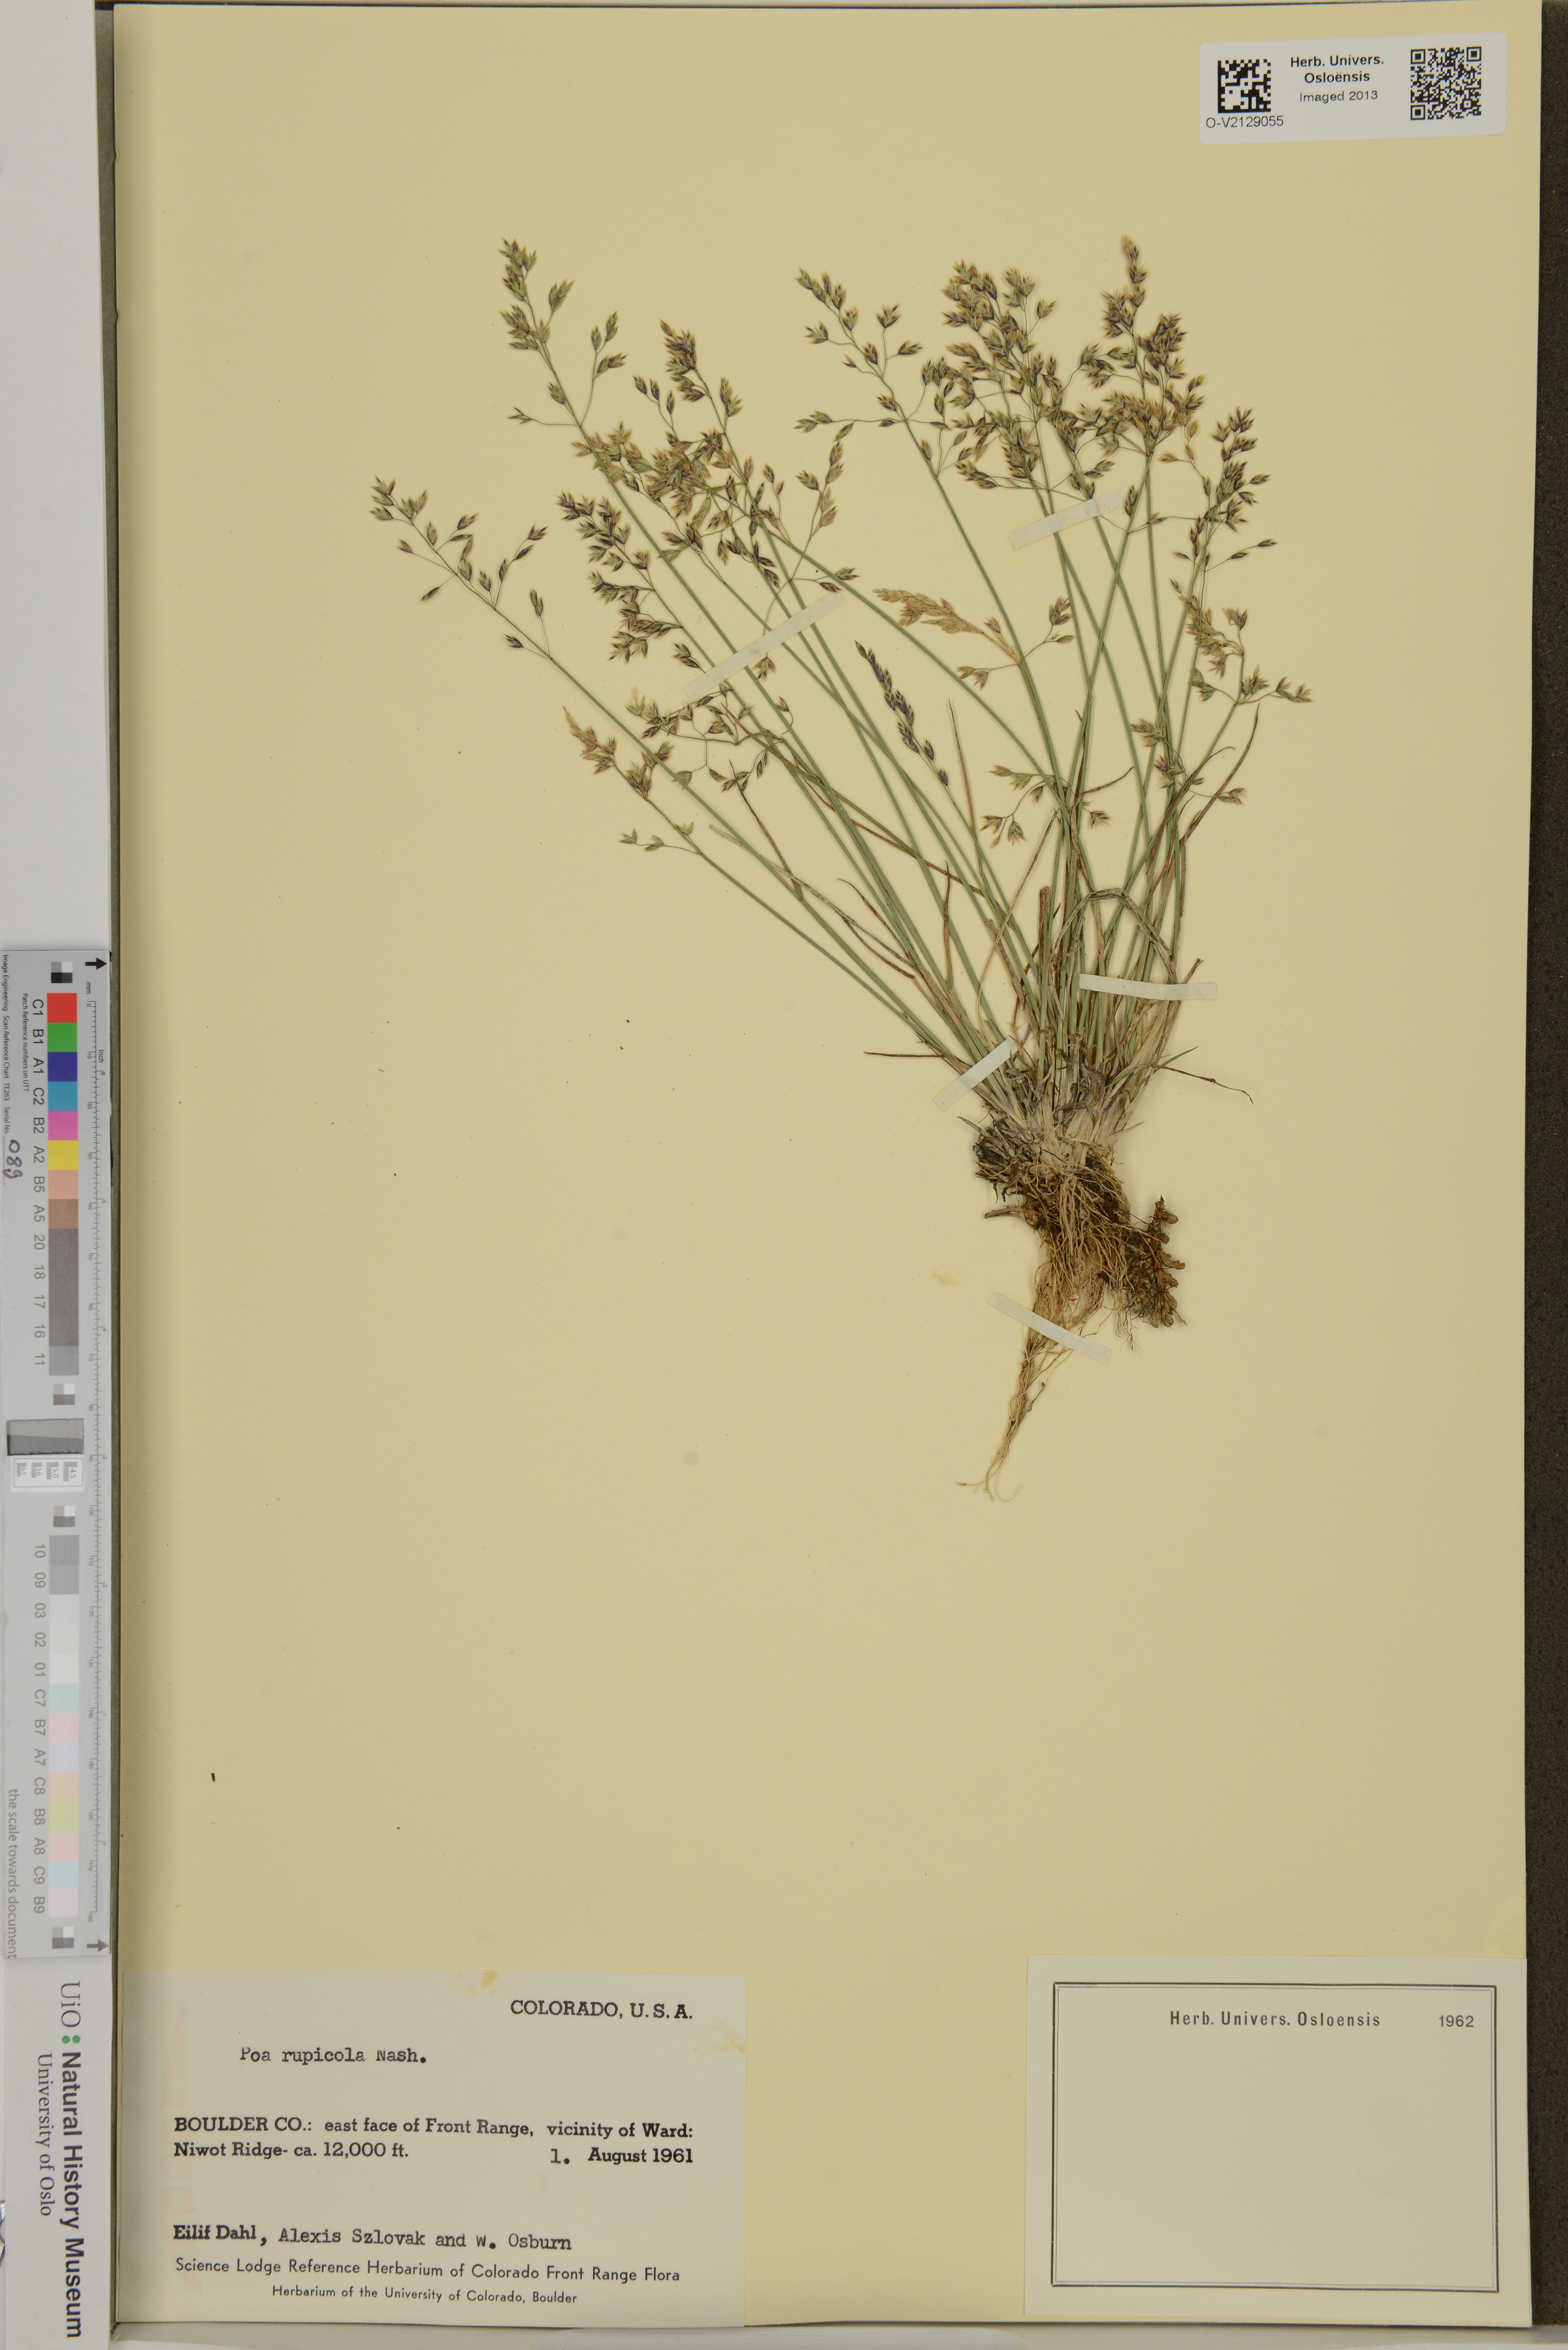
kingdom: Plantae
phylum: Tracheophyta
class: Liliopsida
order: Poales
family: Poaceae
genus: Poa
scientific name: Poa rupicola
